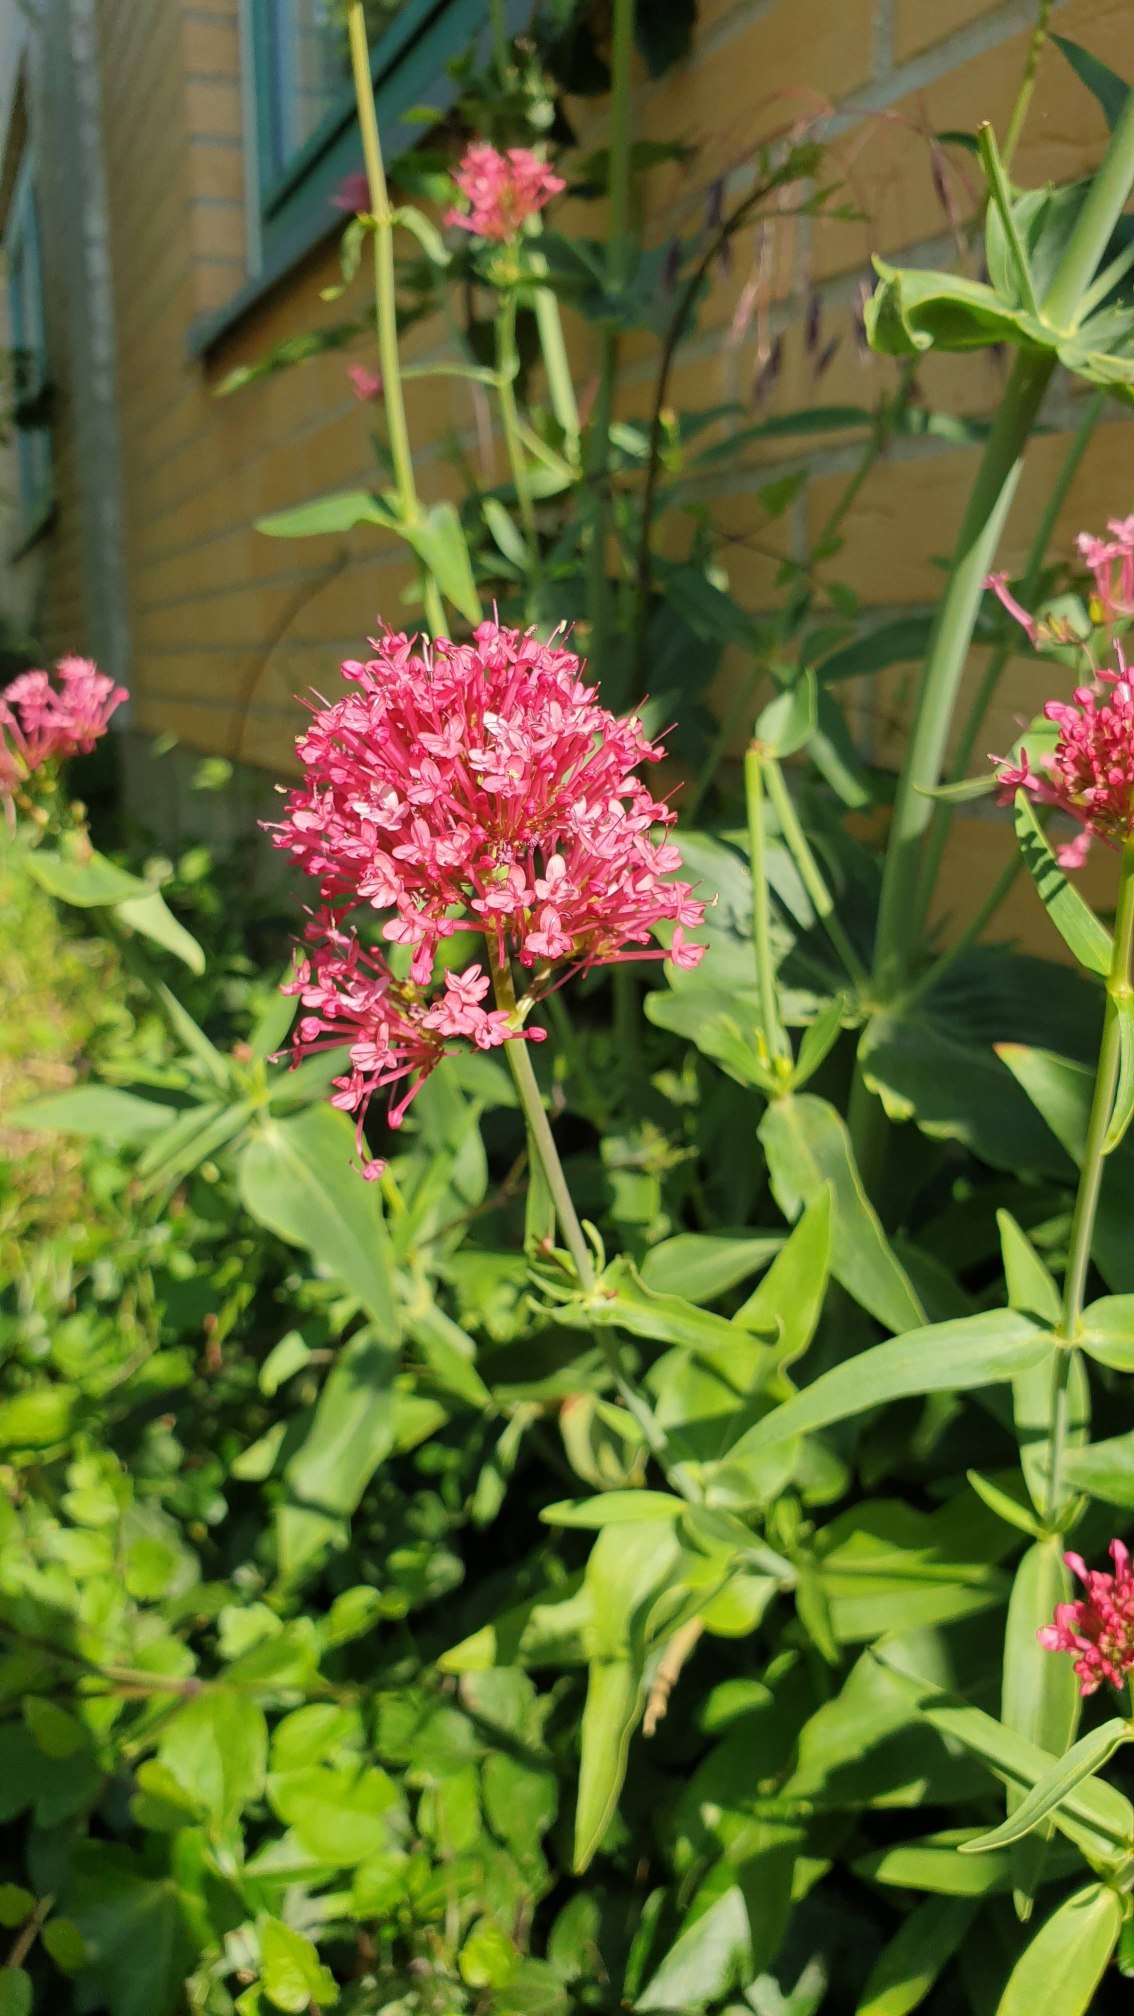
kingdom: Plantae
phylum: Tracheophyta
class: Magnoliopsida
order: Dipsacales
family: Caprifoliaceae
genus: Centranthus
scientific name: Centranthus ruber
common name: Sporebaldrian
